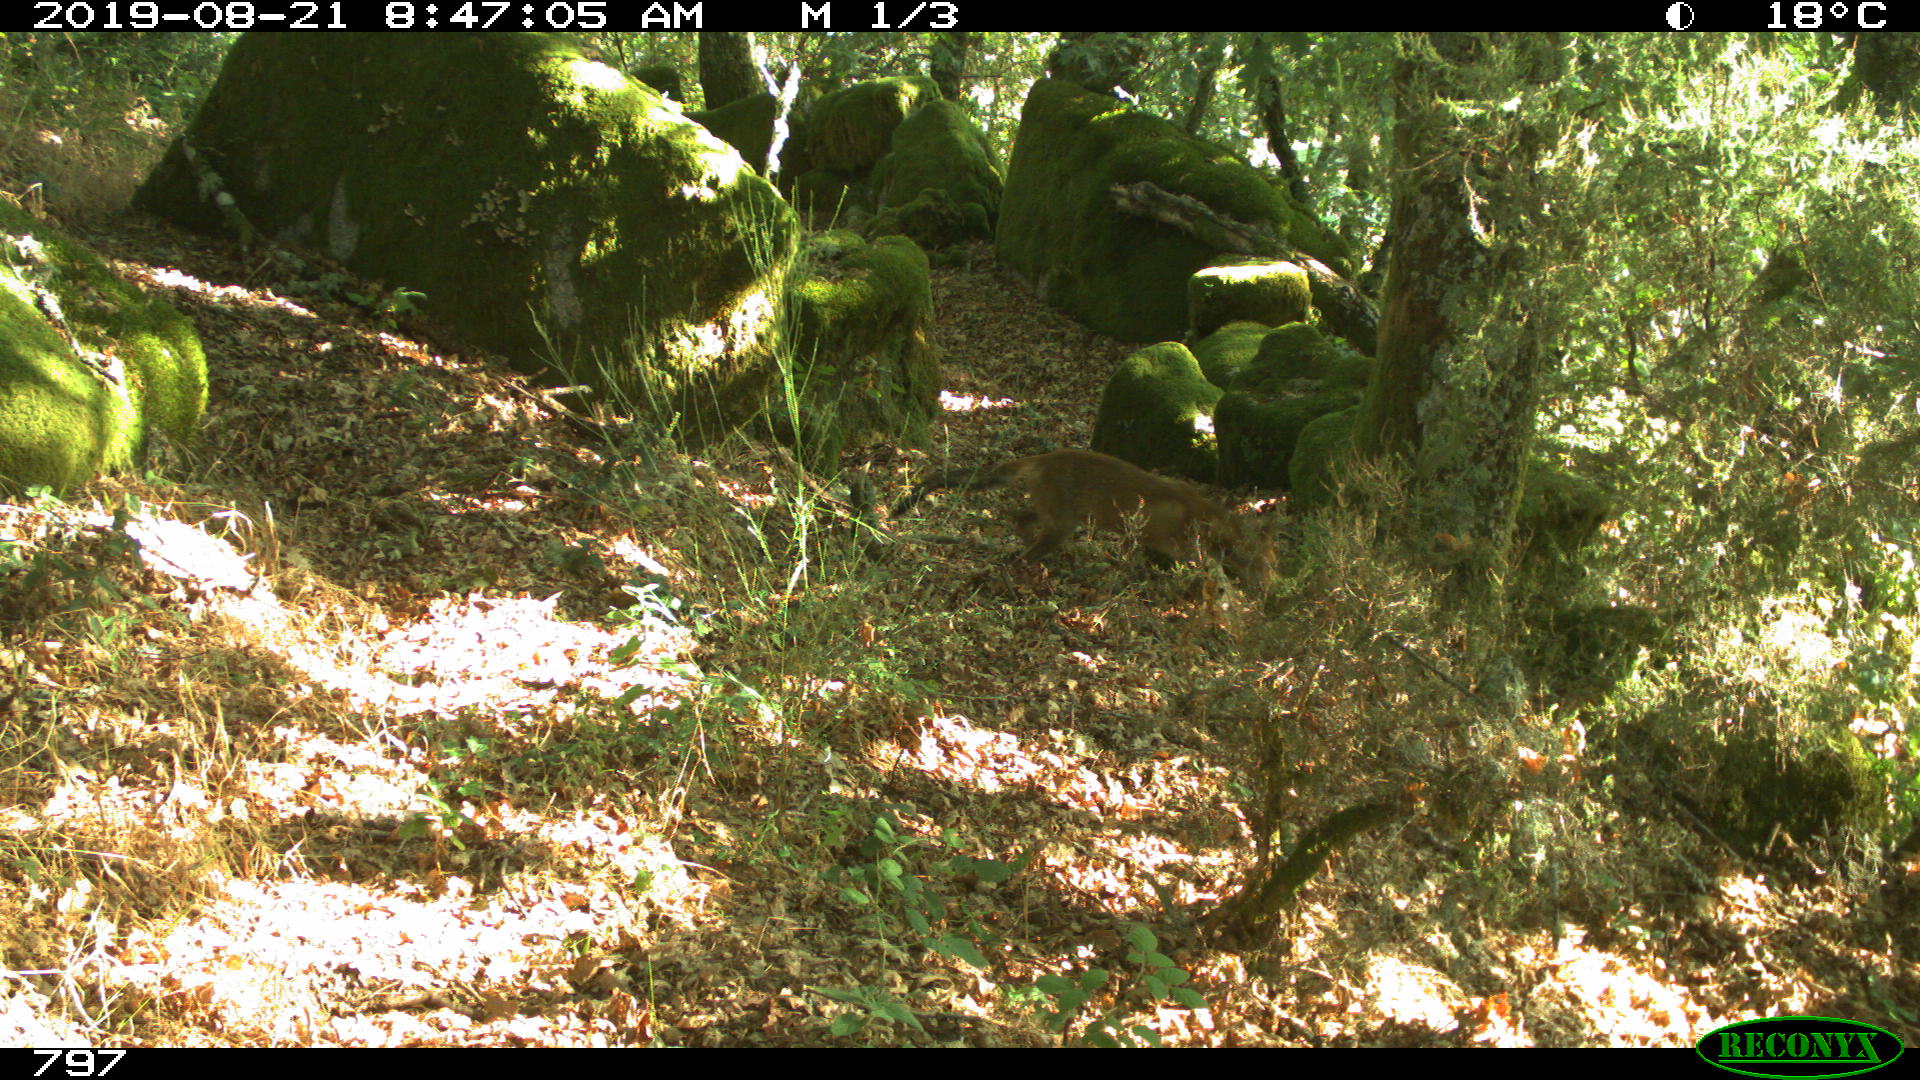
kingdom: Animalia
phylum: Chordata
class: Mammalia
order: Carnivora
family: Canidae
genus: Vulpes
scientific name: Vulpes vulpes
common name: Red fox
